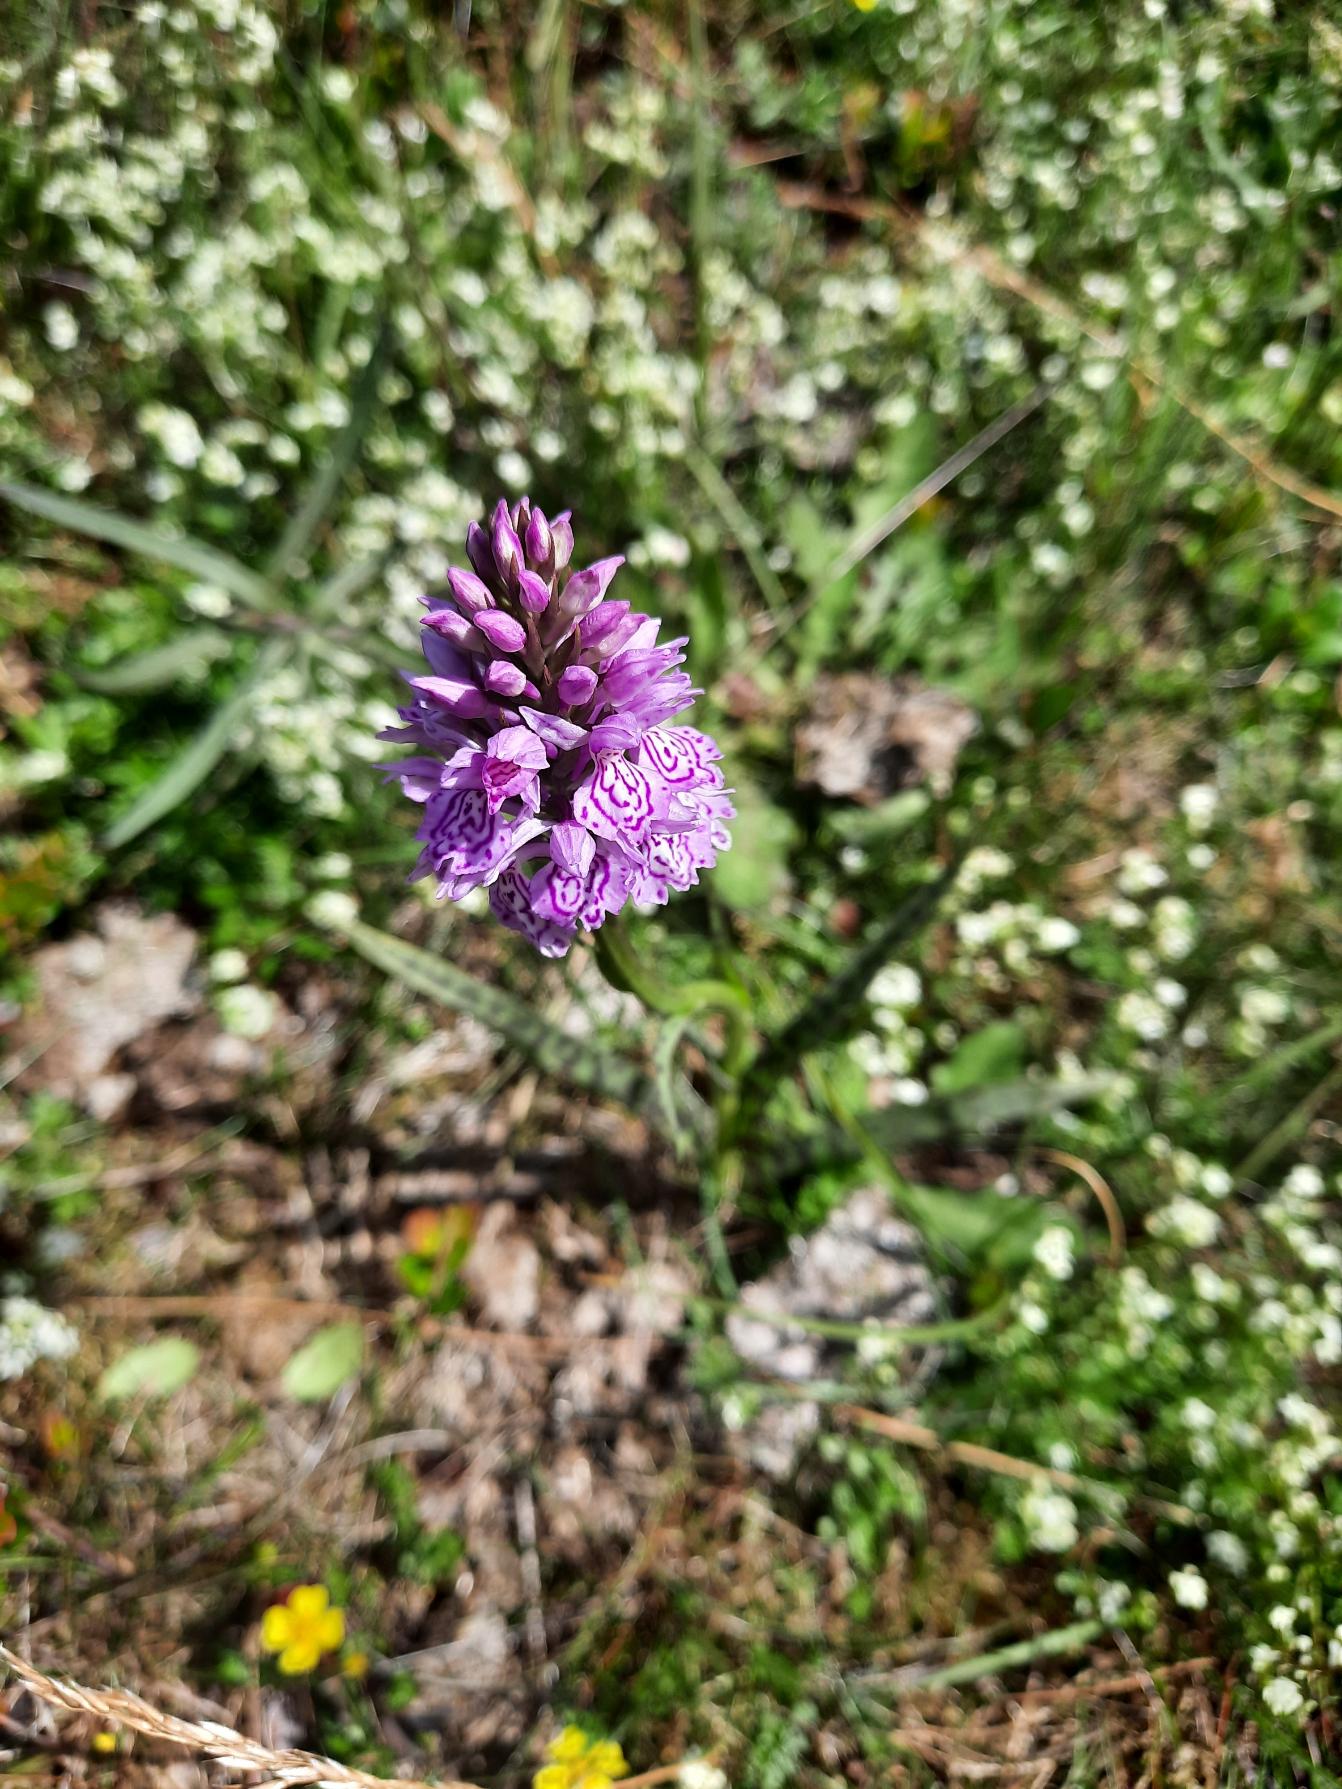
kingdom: Plantae
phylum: Tracheophyta
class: Liliopsida
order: Asparagales
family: Orchidaceae
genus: Dactylorhiza
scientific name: Dactylorhiza maculata
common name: Plettet gøgeurt
